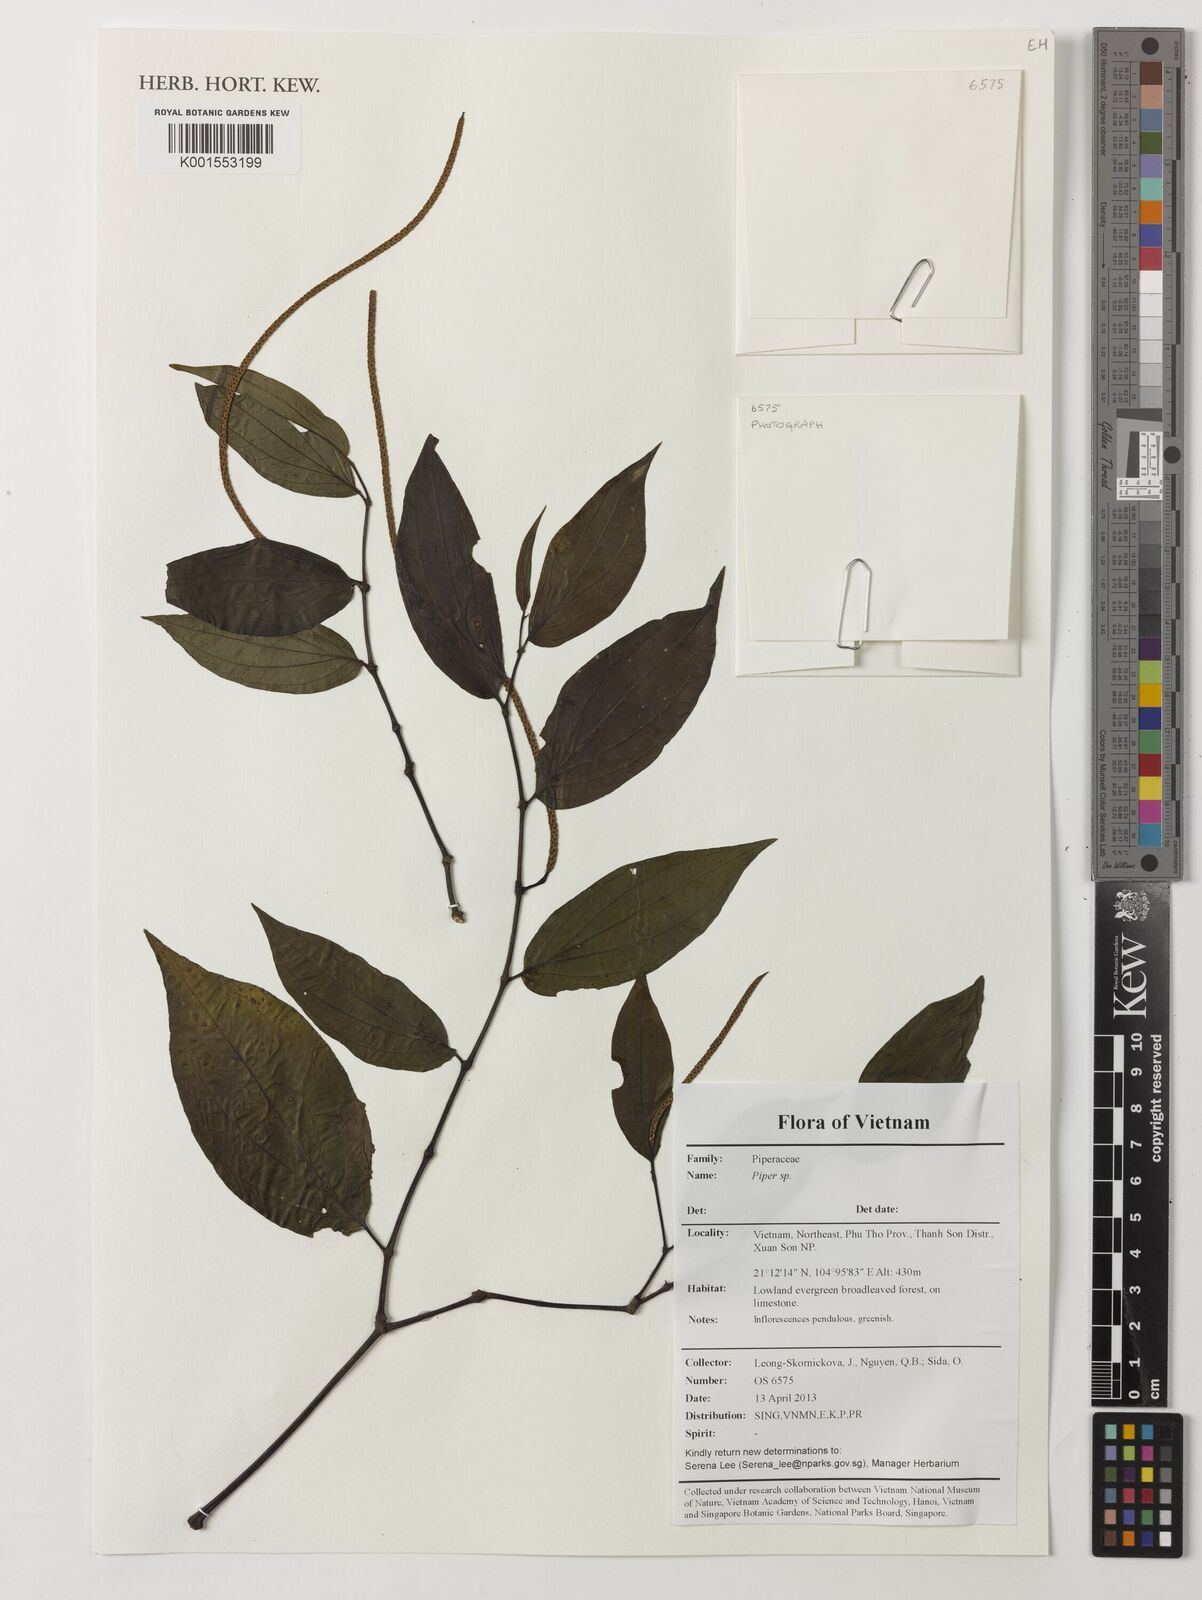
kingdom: Plantae
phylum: Tracheophyta
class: Magnoliopsida
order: Piperales
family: Piperaceae
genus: Piper
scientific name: Piper
